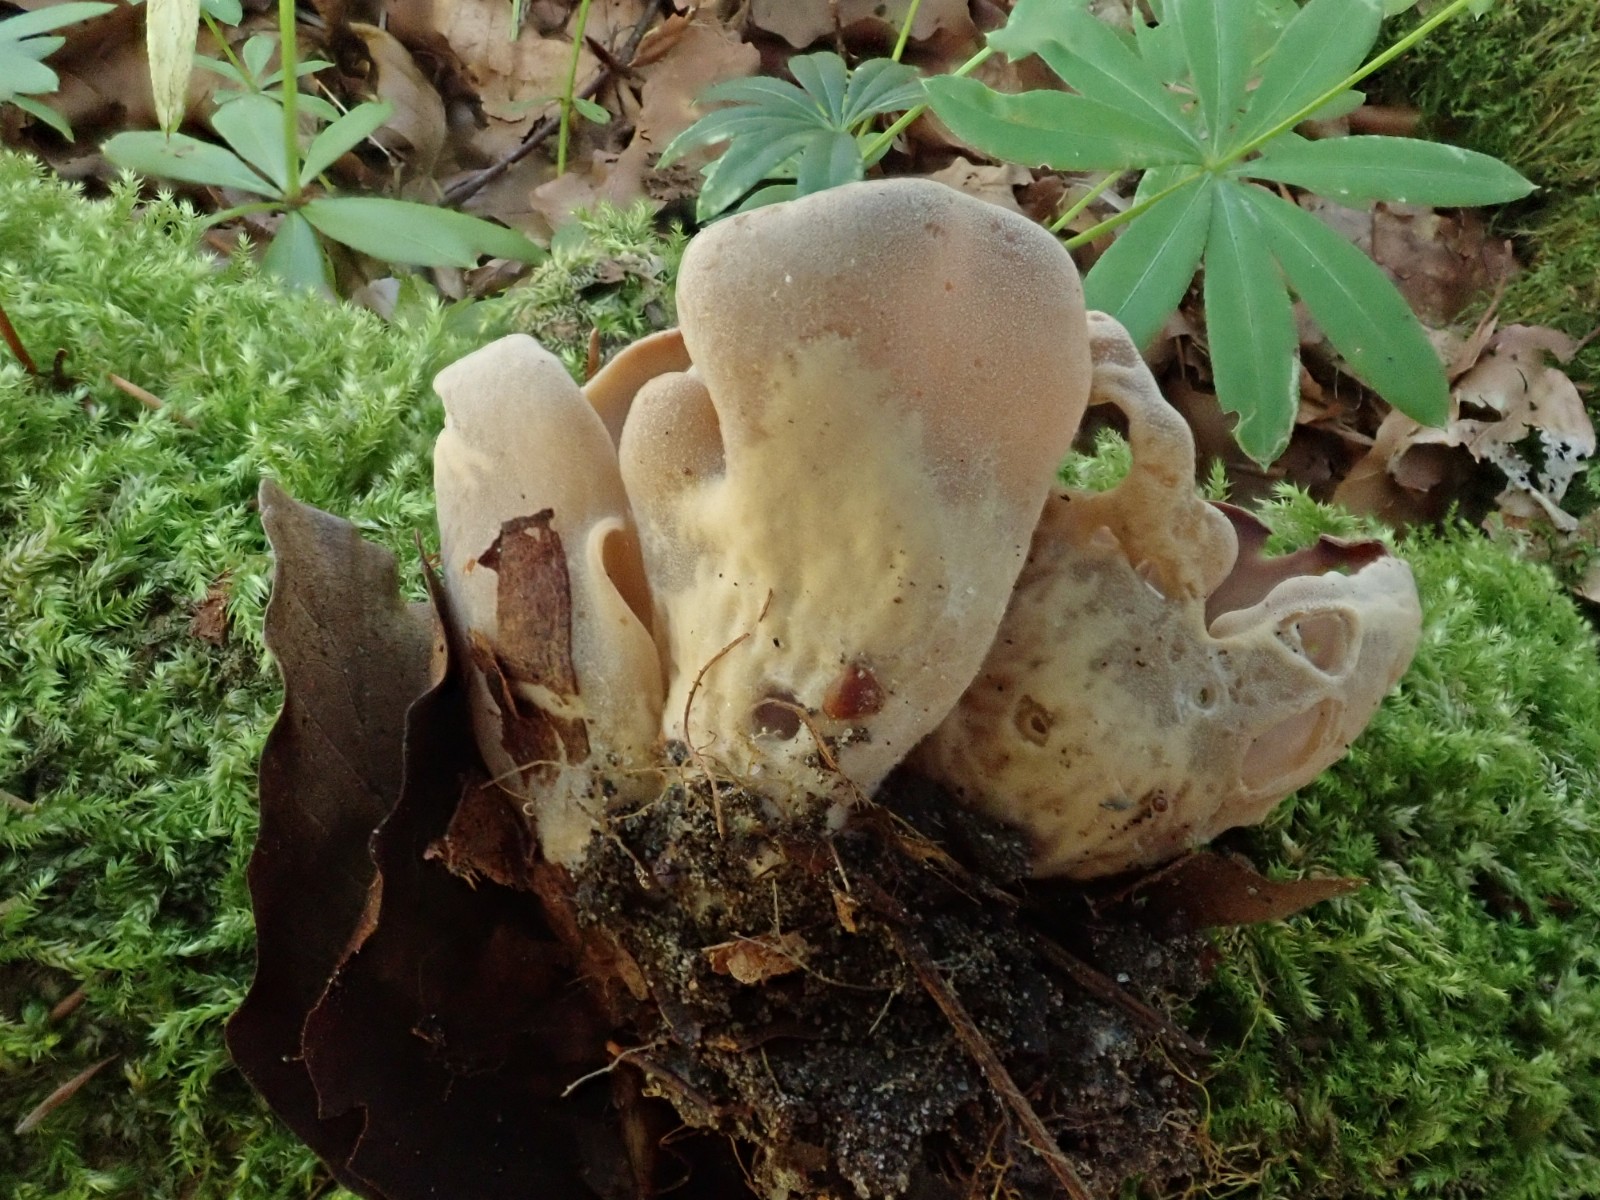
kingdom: Fungi
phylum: Ascomycota
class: Pezizomycetes
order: Pezizales
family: Otideaceae
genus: Otidea
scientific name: Otidea alutacea
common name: læder-ørebæger
